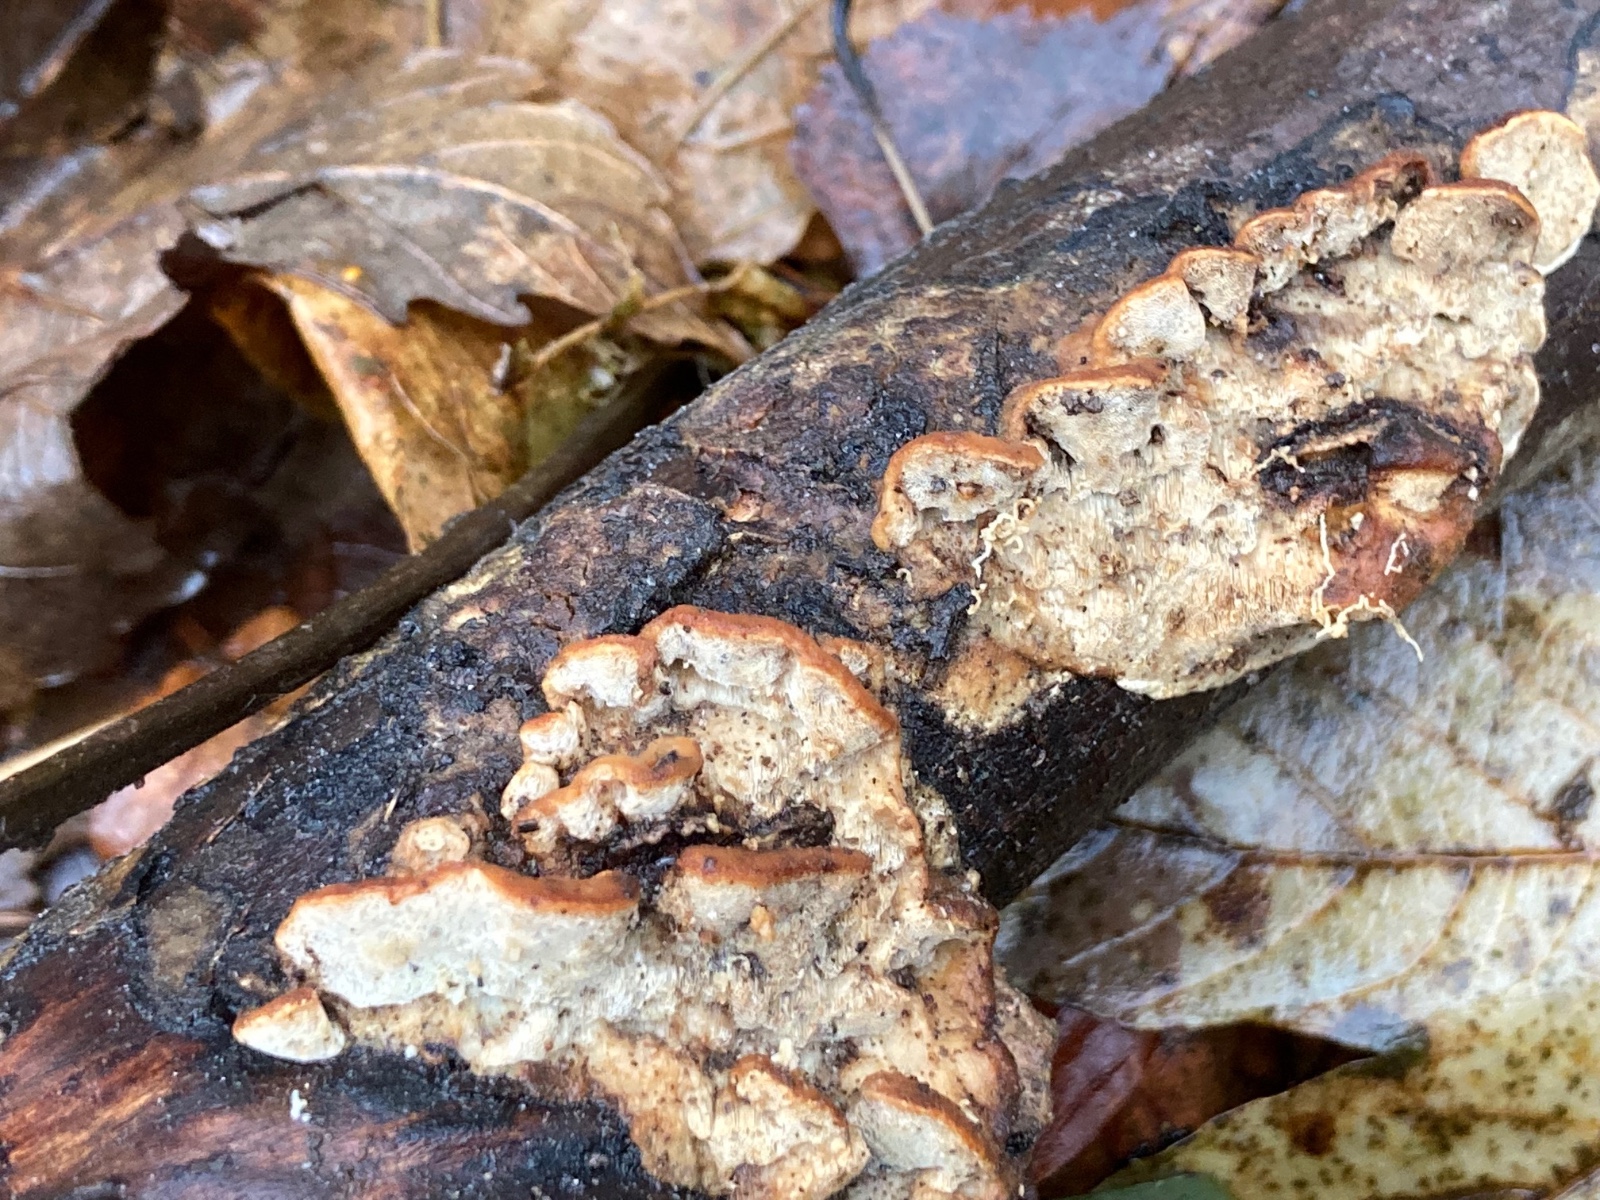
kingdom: Fungi
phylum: Basidiomycota
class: Agaricomycetes
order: Polyporales
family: Incrustoporiaceae
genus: Skeletocutis
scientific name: Skeletocutis nemoralis
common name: stor krystalporesvamp
